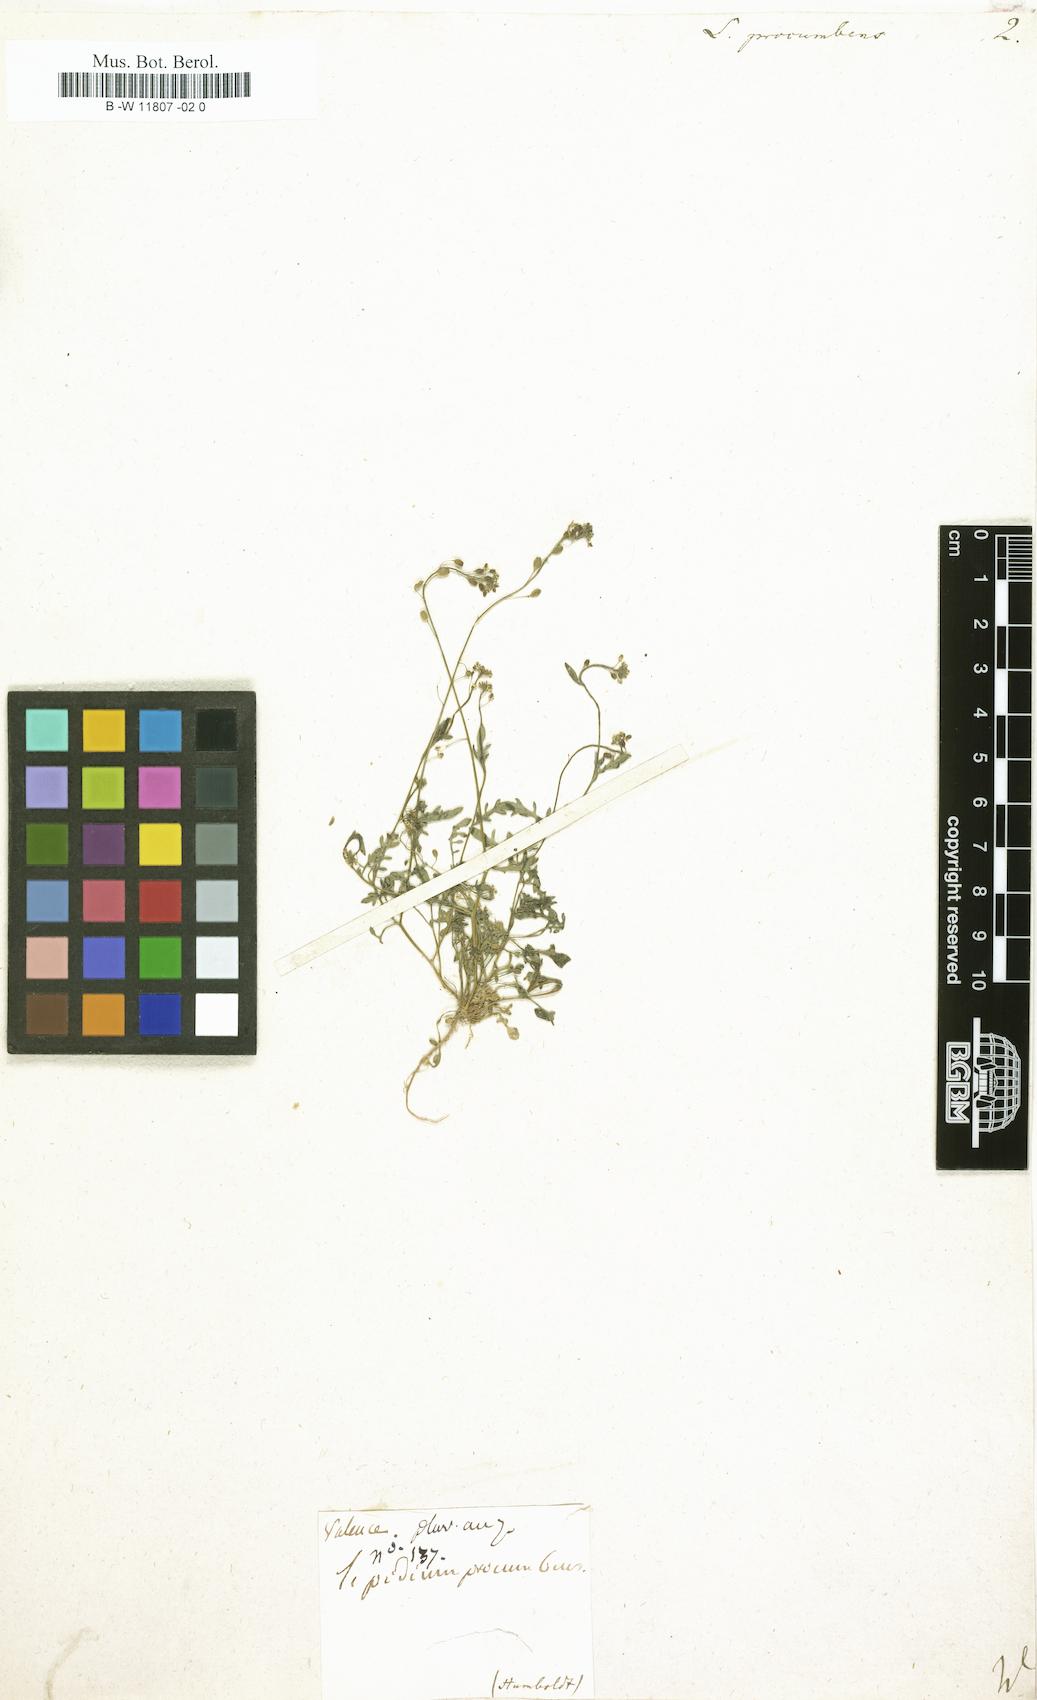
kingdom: Plantae
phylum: Tracheophyta
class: Magnoliopsida
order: Brassicales
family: Brassicaceae
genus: Hornungia
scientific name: Hornungia procumbens
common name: Oval purse
